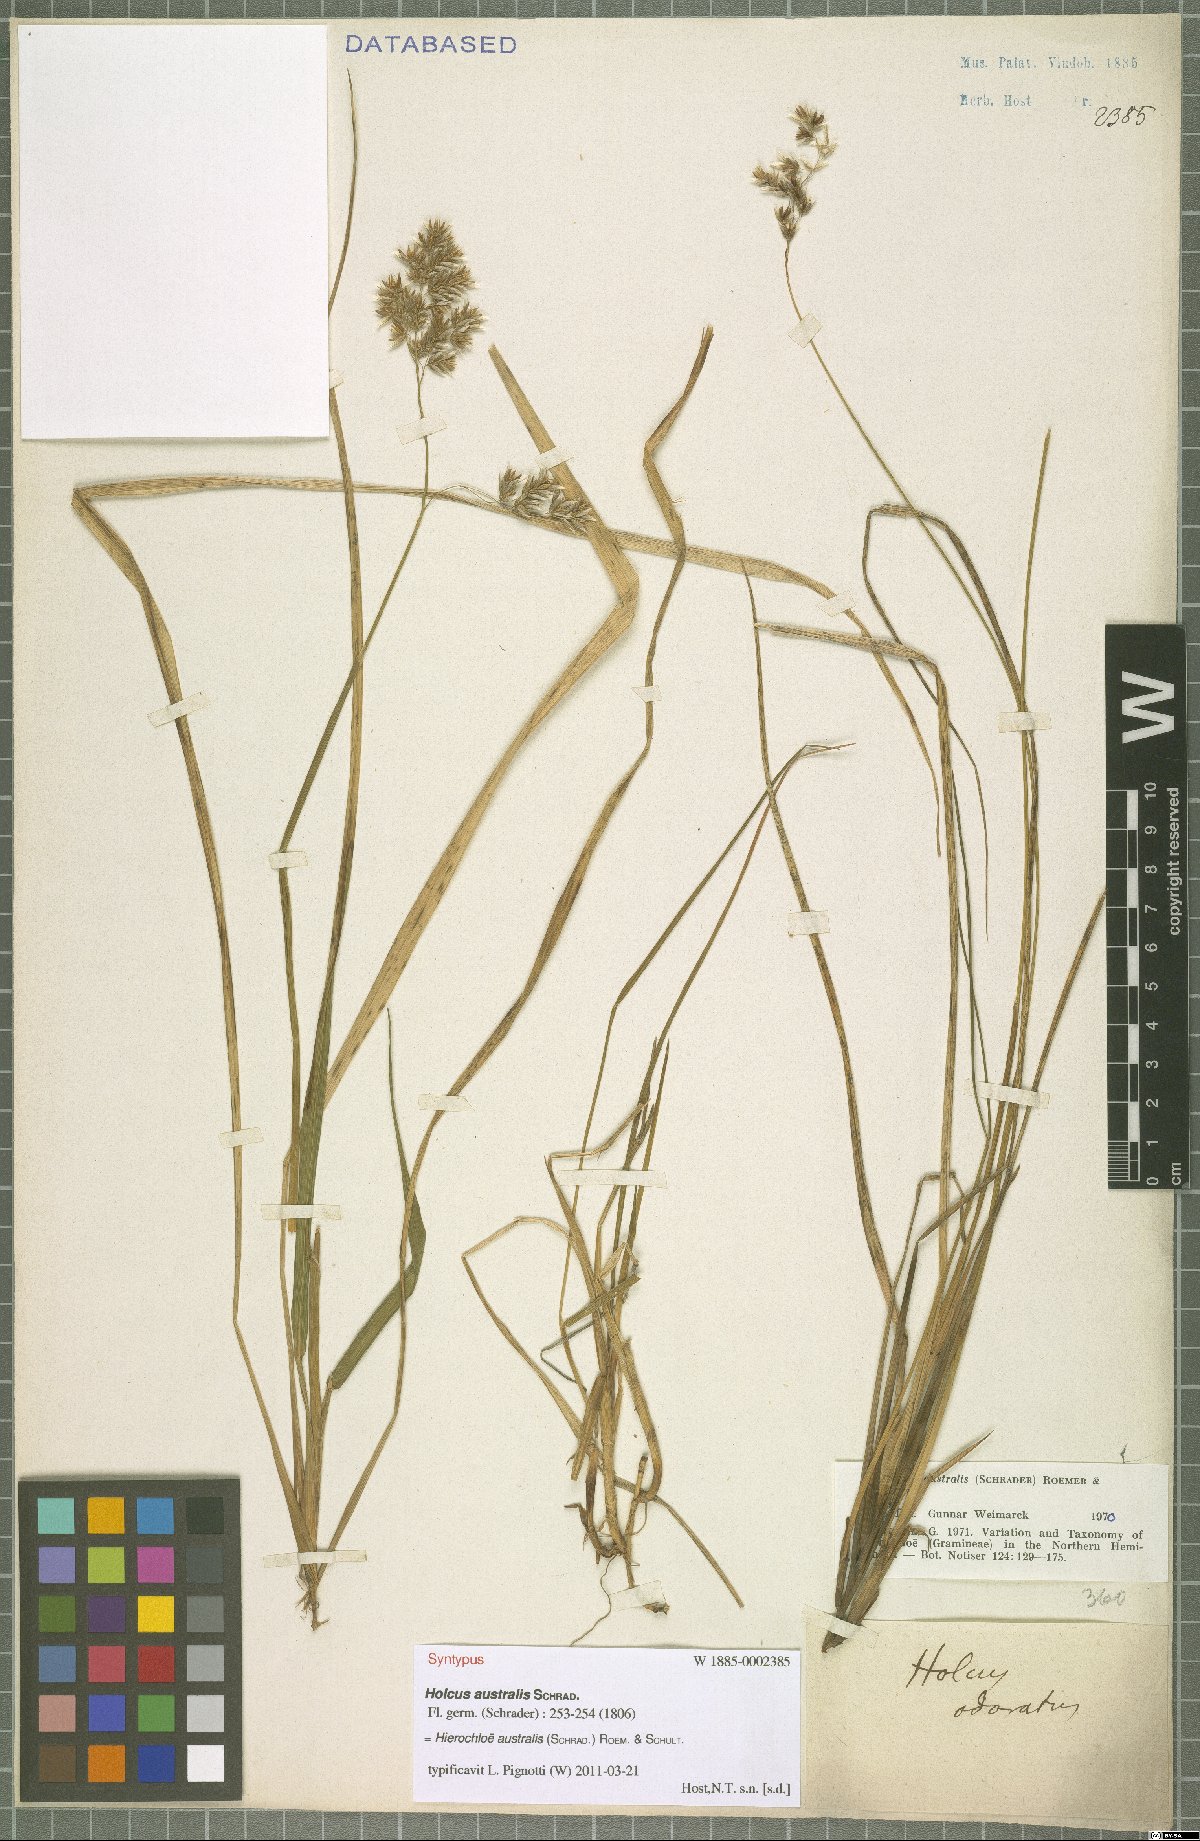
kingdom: Plantae
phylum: Tracheophyta
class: Liliopsida
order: Poales
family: Poaceae
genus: Anthoxanthum
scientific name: Anthoxanthum australe
